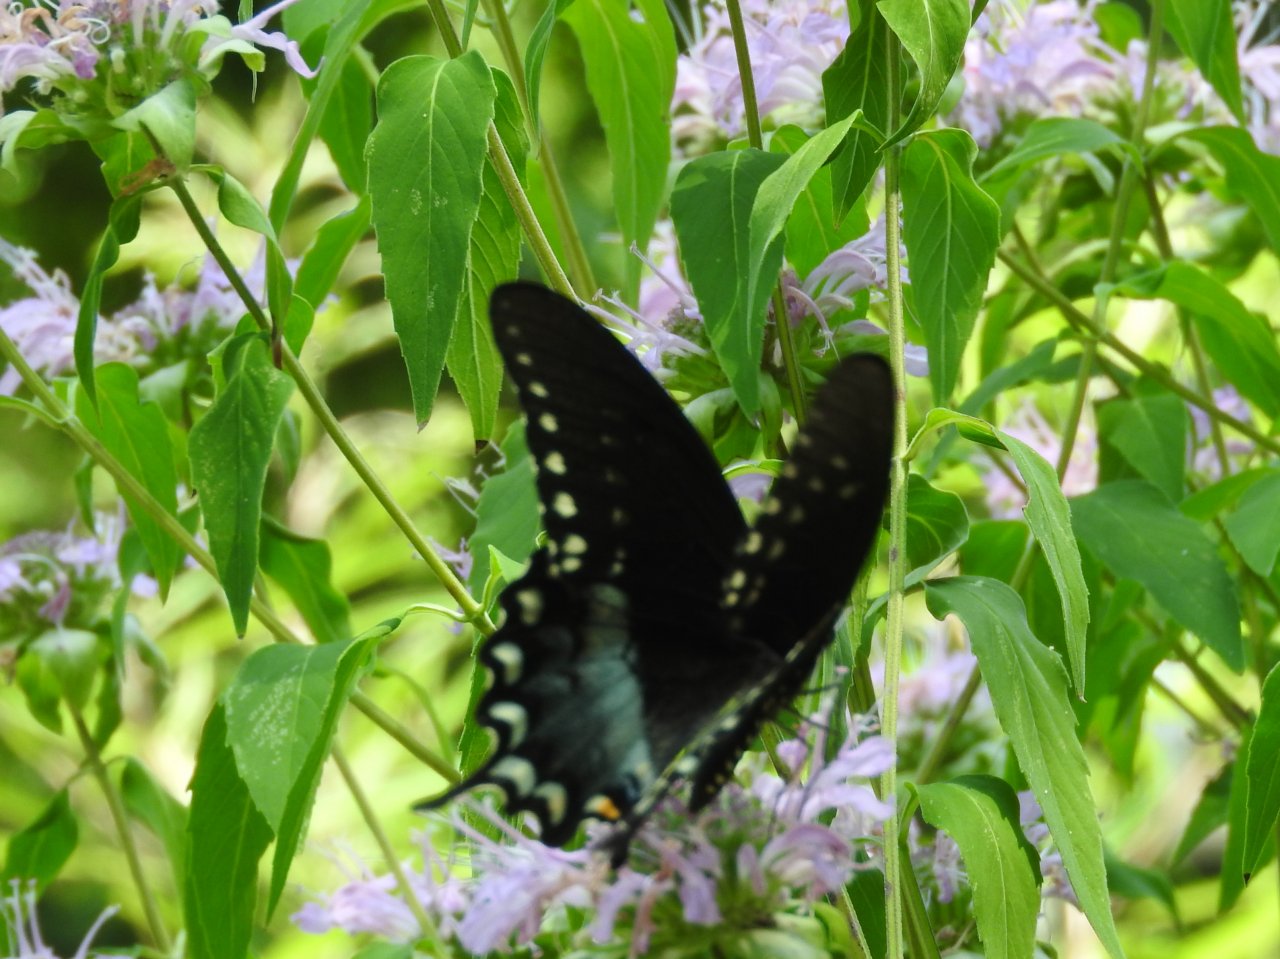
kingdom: Animalia
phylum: Arthropoda
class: Insecta
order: Lepidoptera
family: Papilionidae
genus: Pterourus
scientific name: Pterourus troilus
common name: Spicebush Swallowtail
